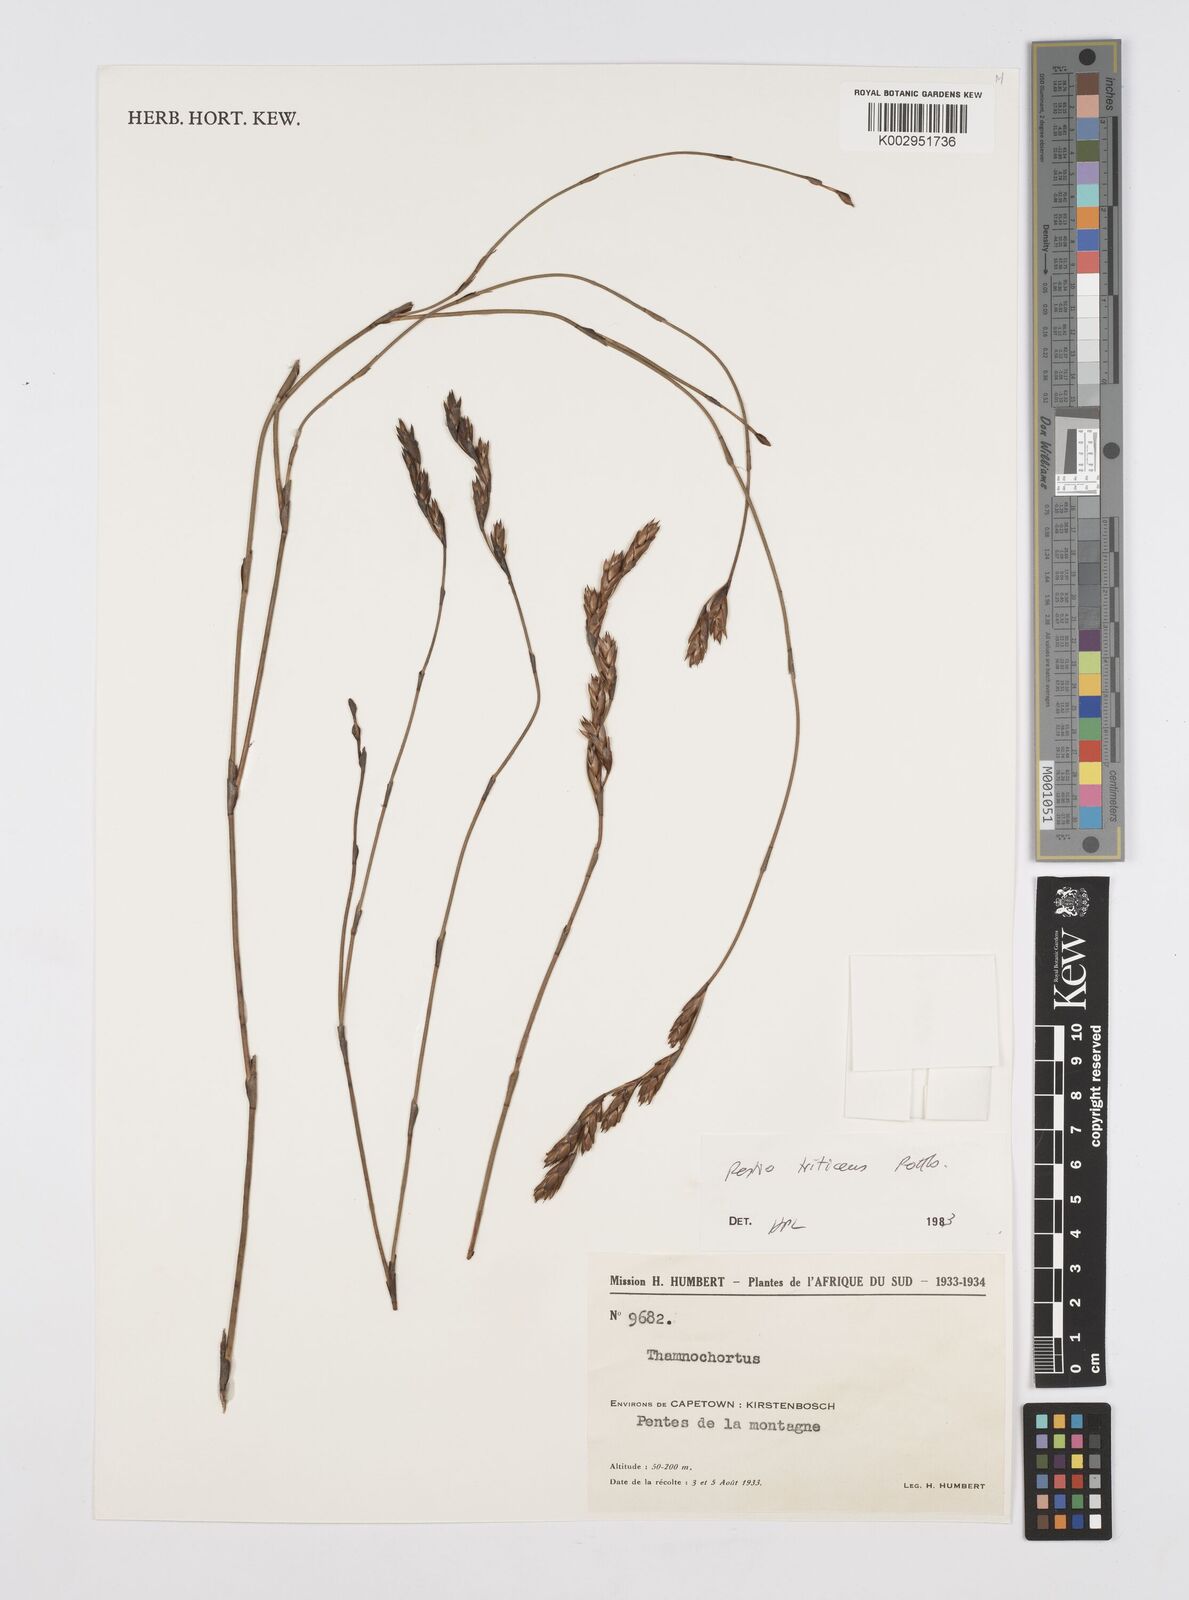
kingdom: Plantae
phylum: Tracheophyta
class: Liliopsida
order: Poales
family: Restionaceae
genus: Restio
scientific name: Restio triticeus
